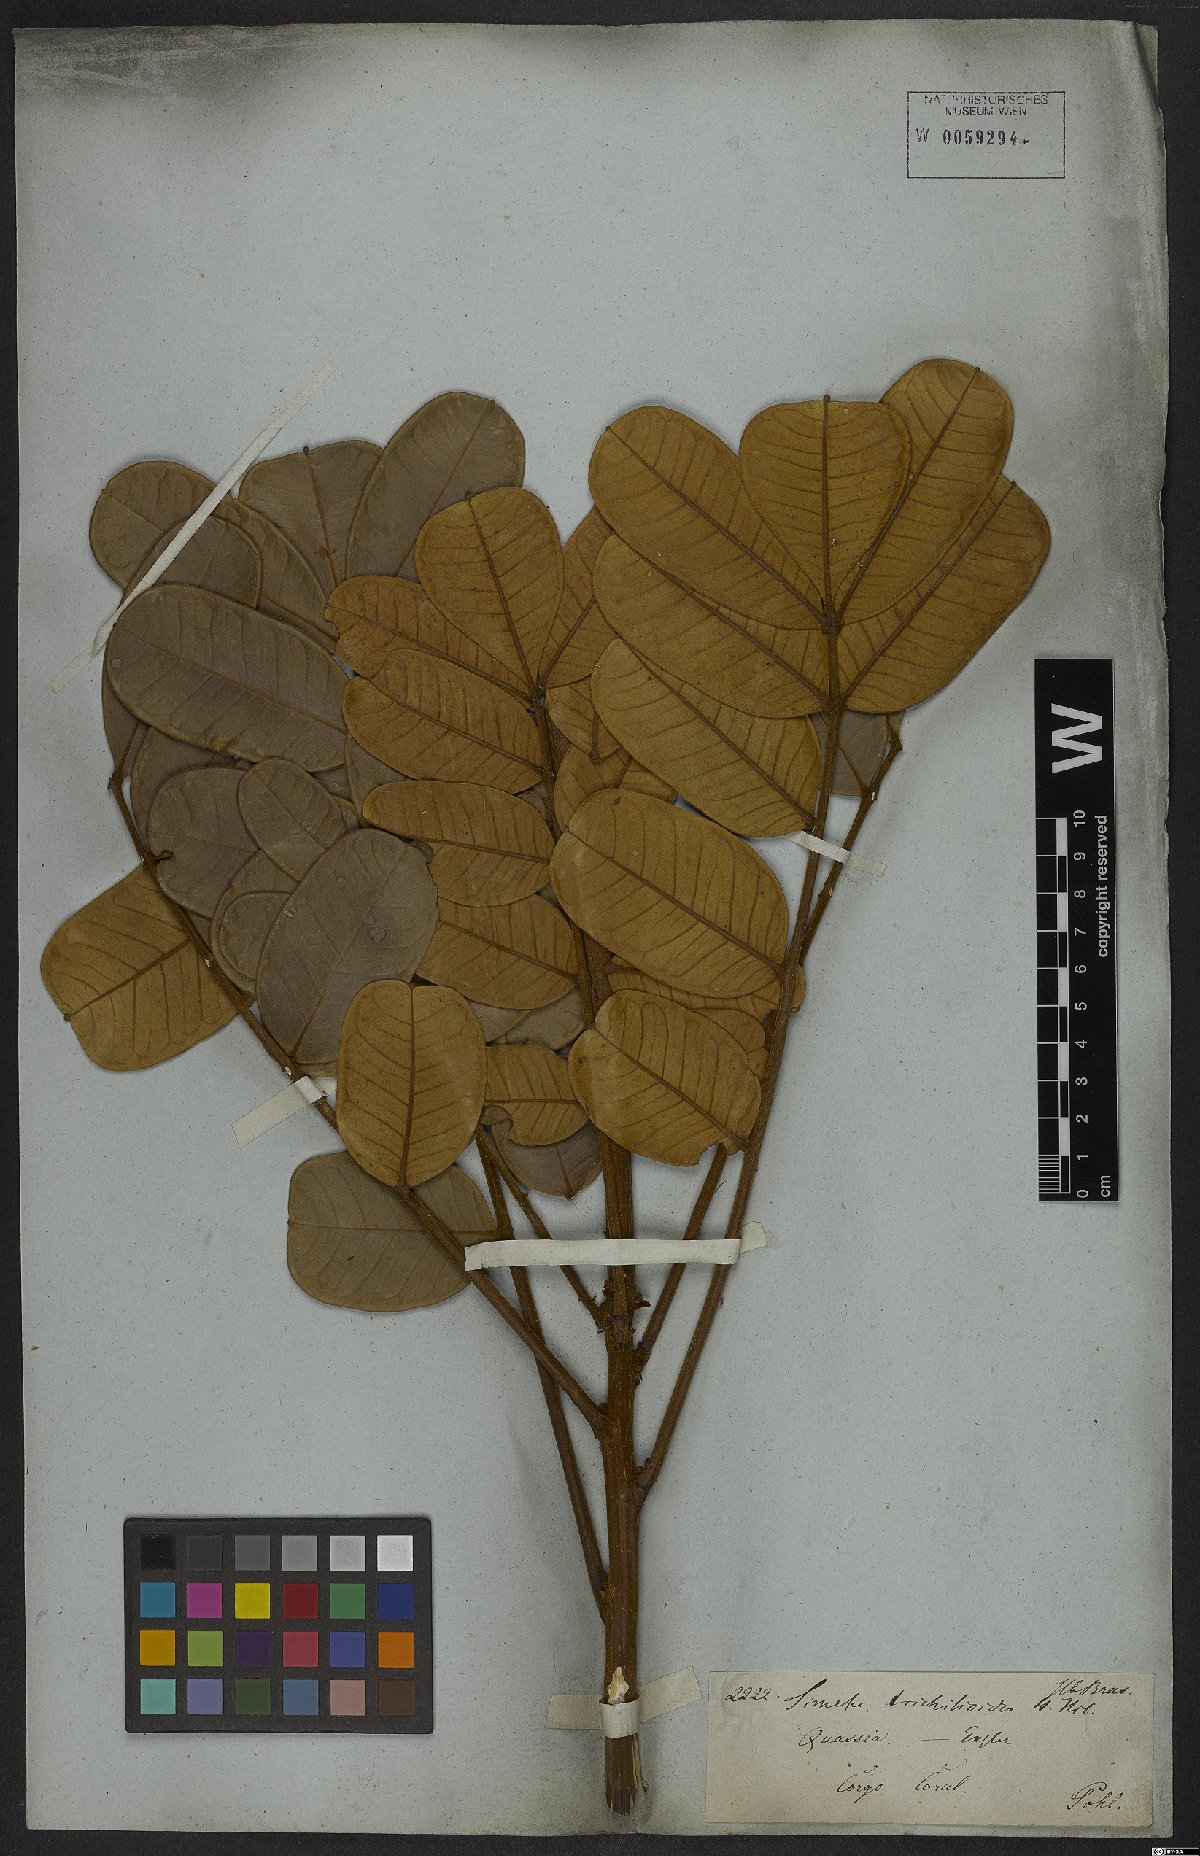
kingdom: Plantae
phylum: Tracheophyta
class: Magnoliopsida
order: Sapindales
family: Simaroubaceae
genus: Homalolepis
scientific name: Homalolepis trichilioides
